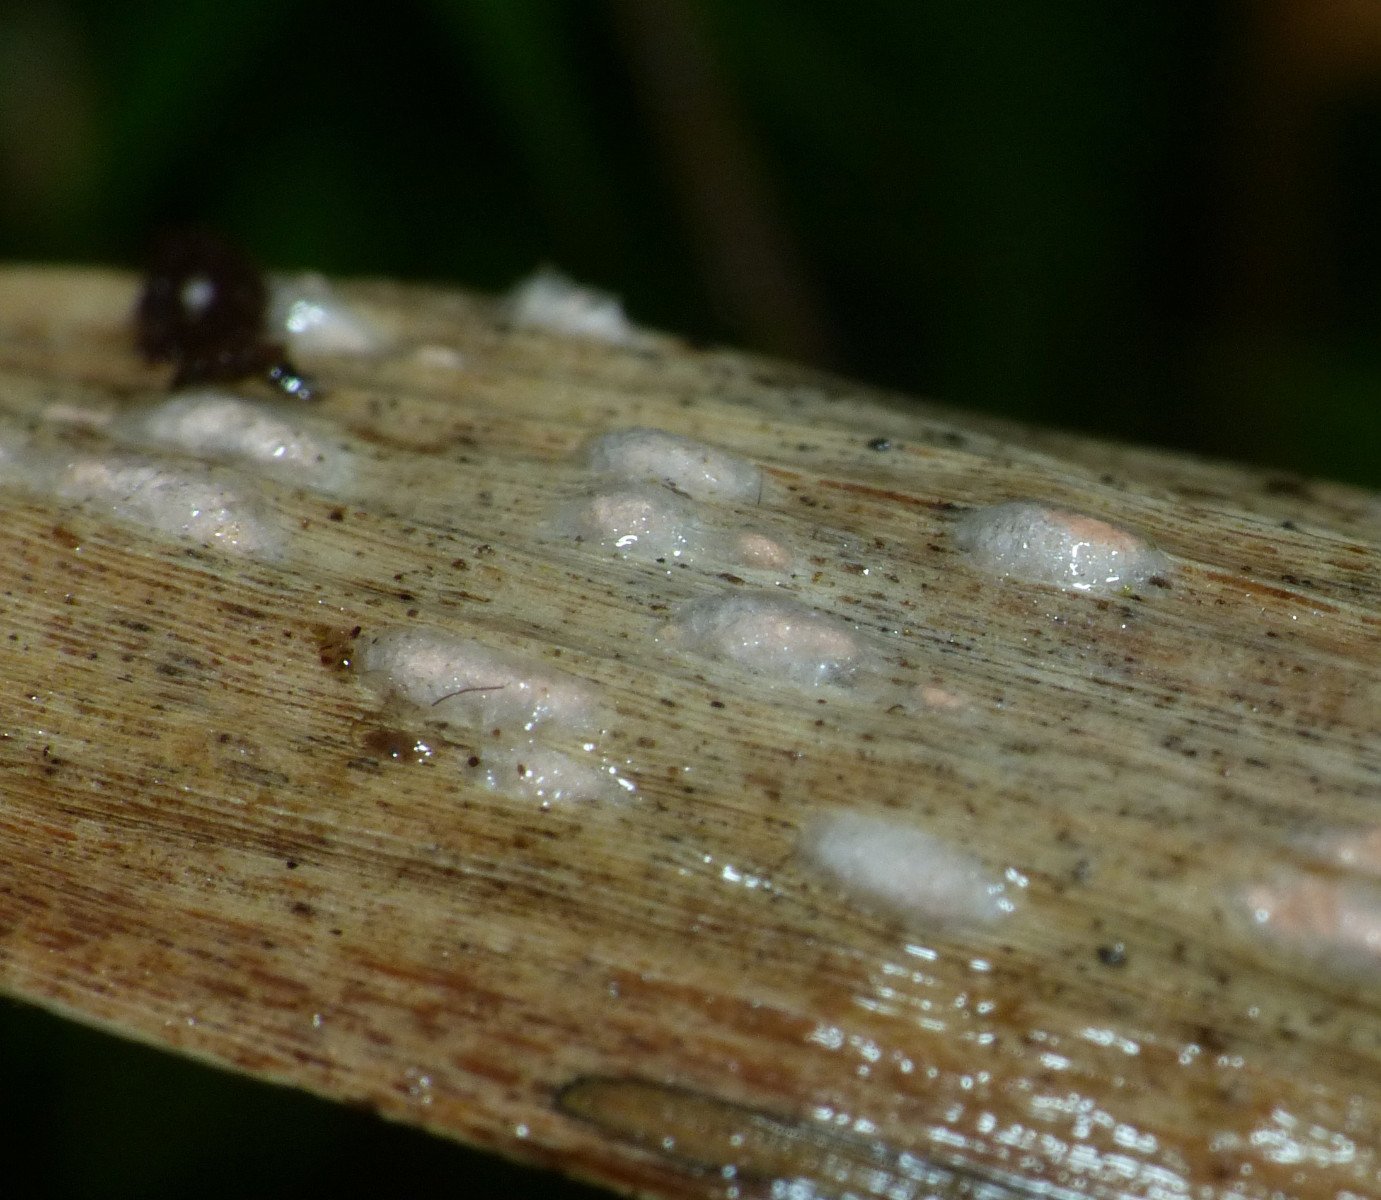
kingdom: Fungi
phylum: Ascomycota
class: Sordariomycetes
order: Hypocreales
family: Nectriaceae
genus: Volutella
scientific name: Volutella arundinis
